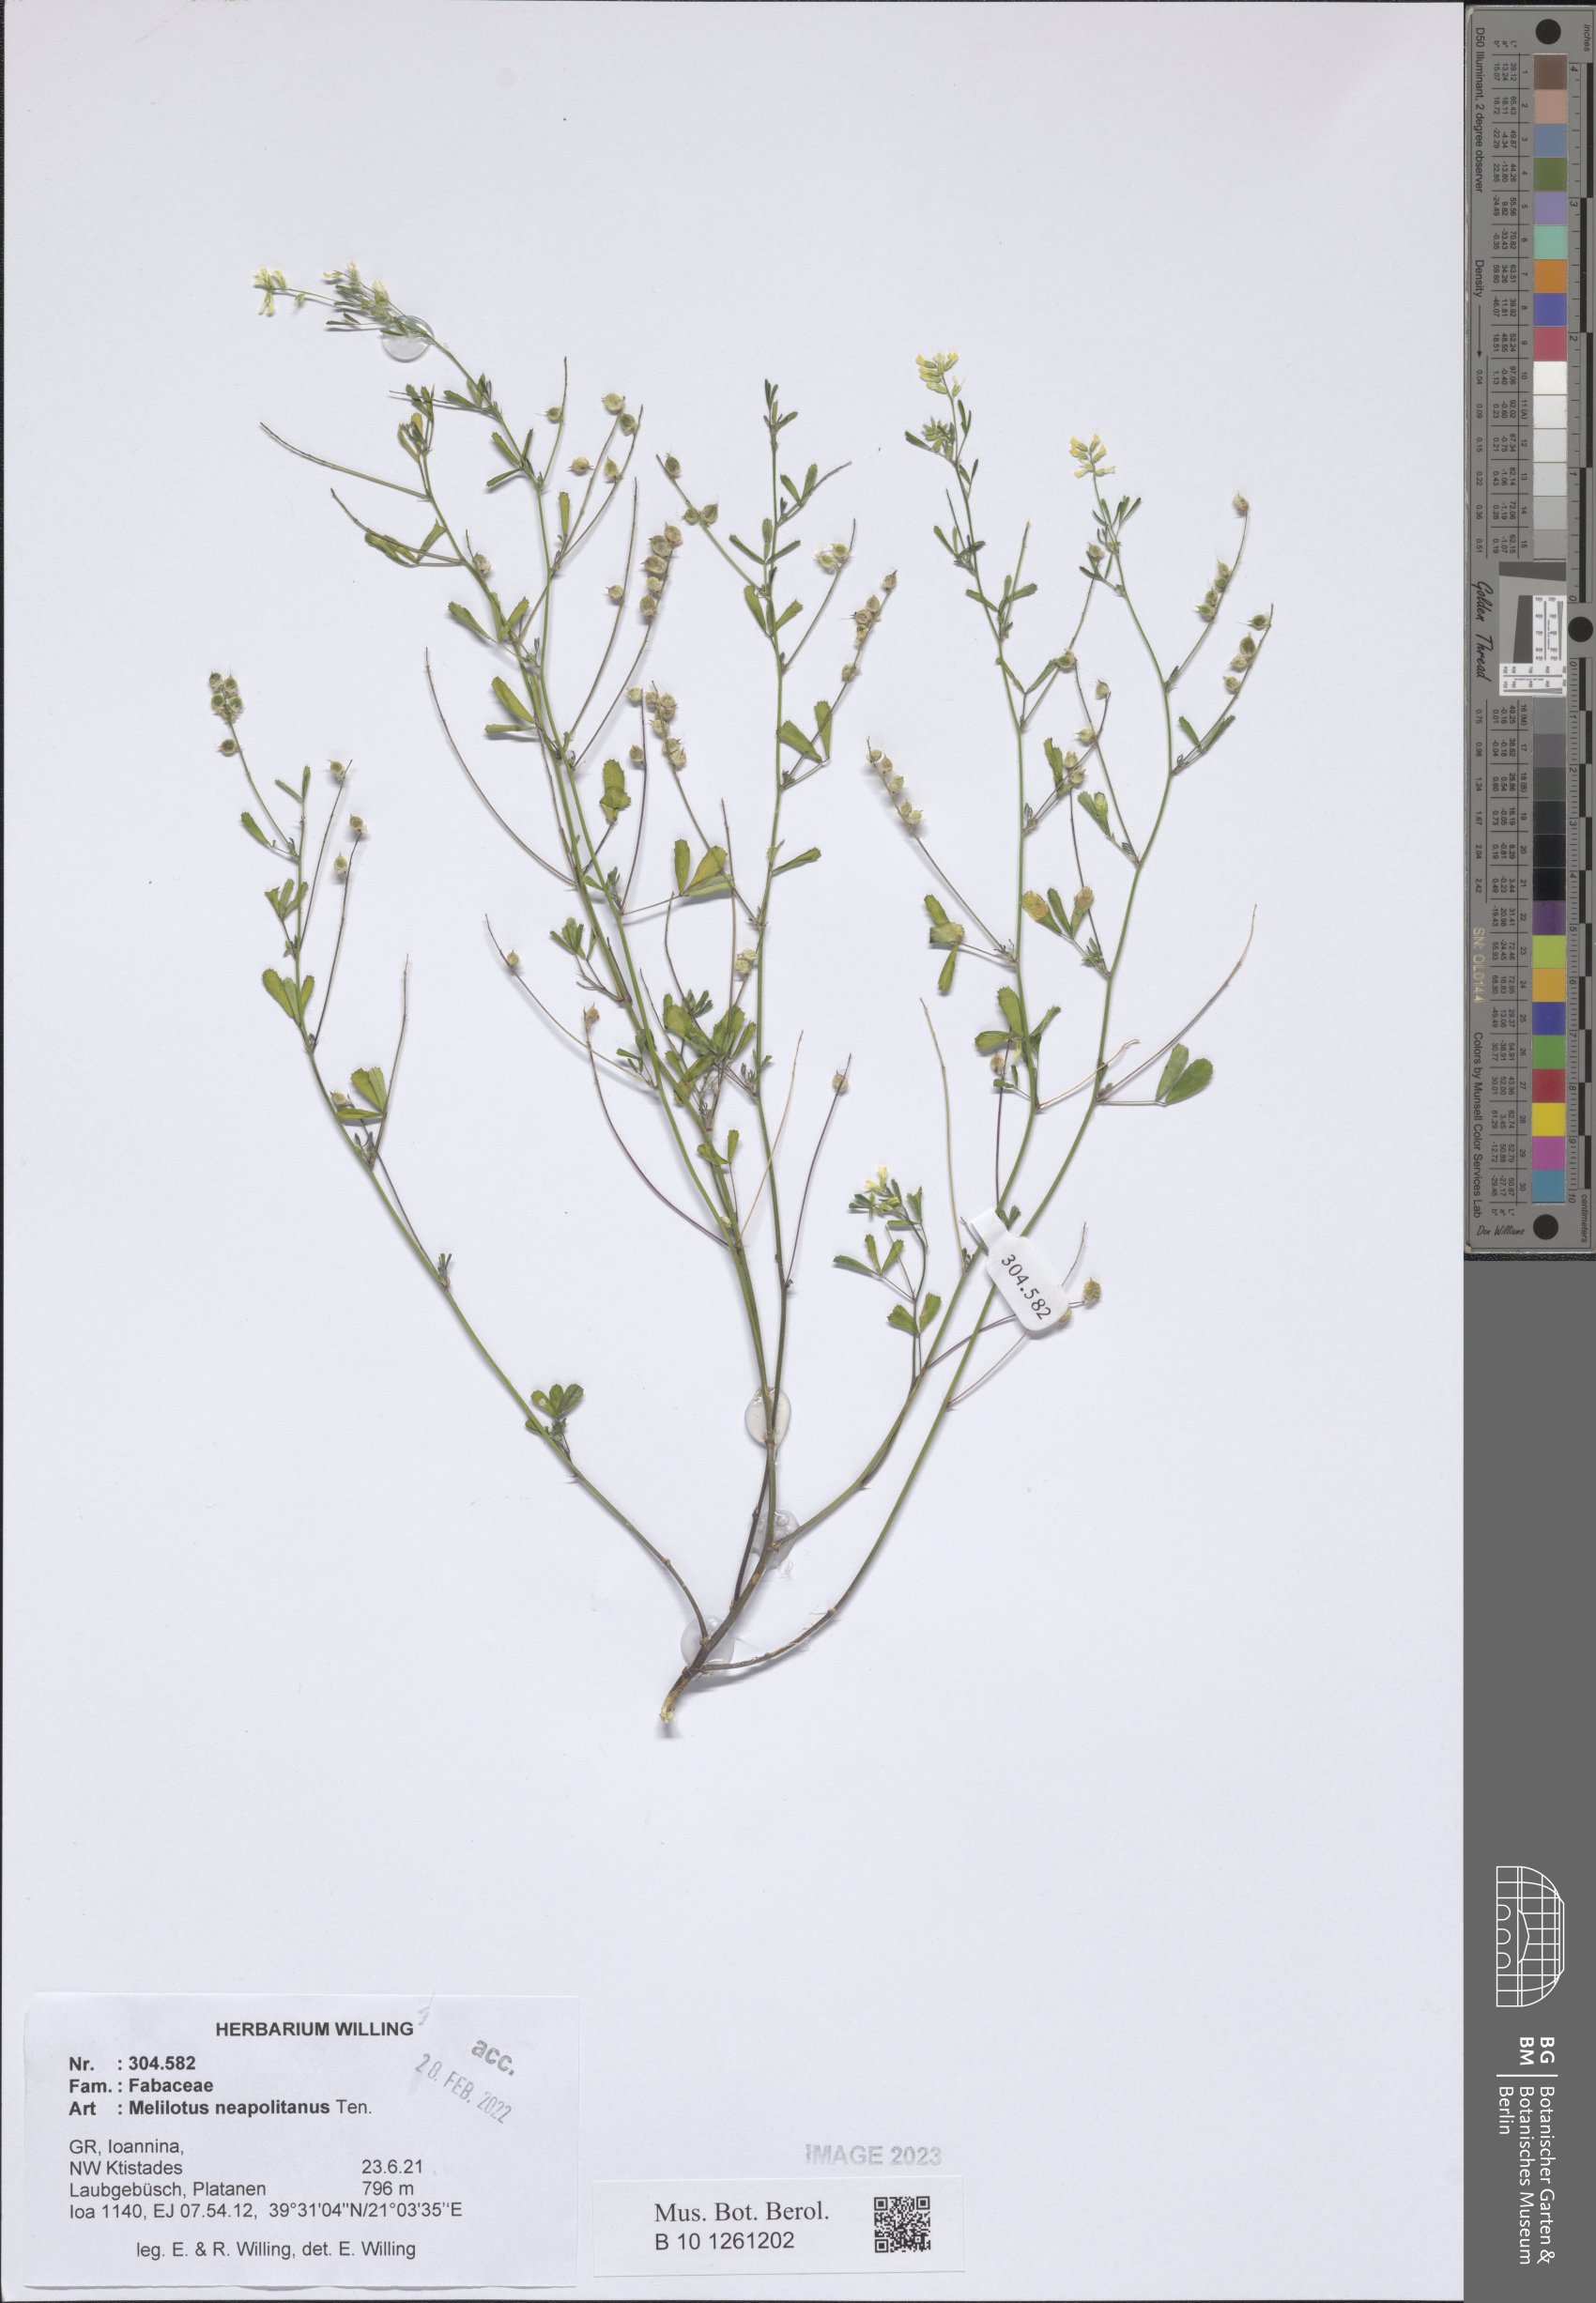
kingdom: Plantae
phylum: Tracheophyta
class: Magnoliopsida
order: Fabales
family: Fabaceae
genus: Melilotus
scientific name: Melilotus neapolitanus
